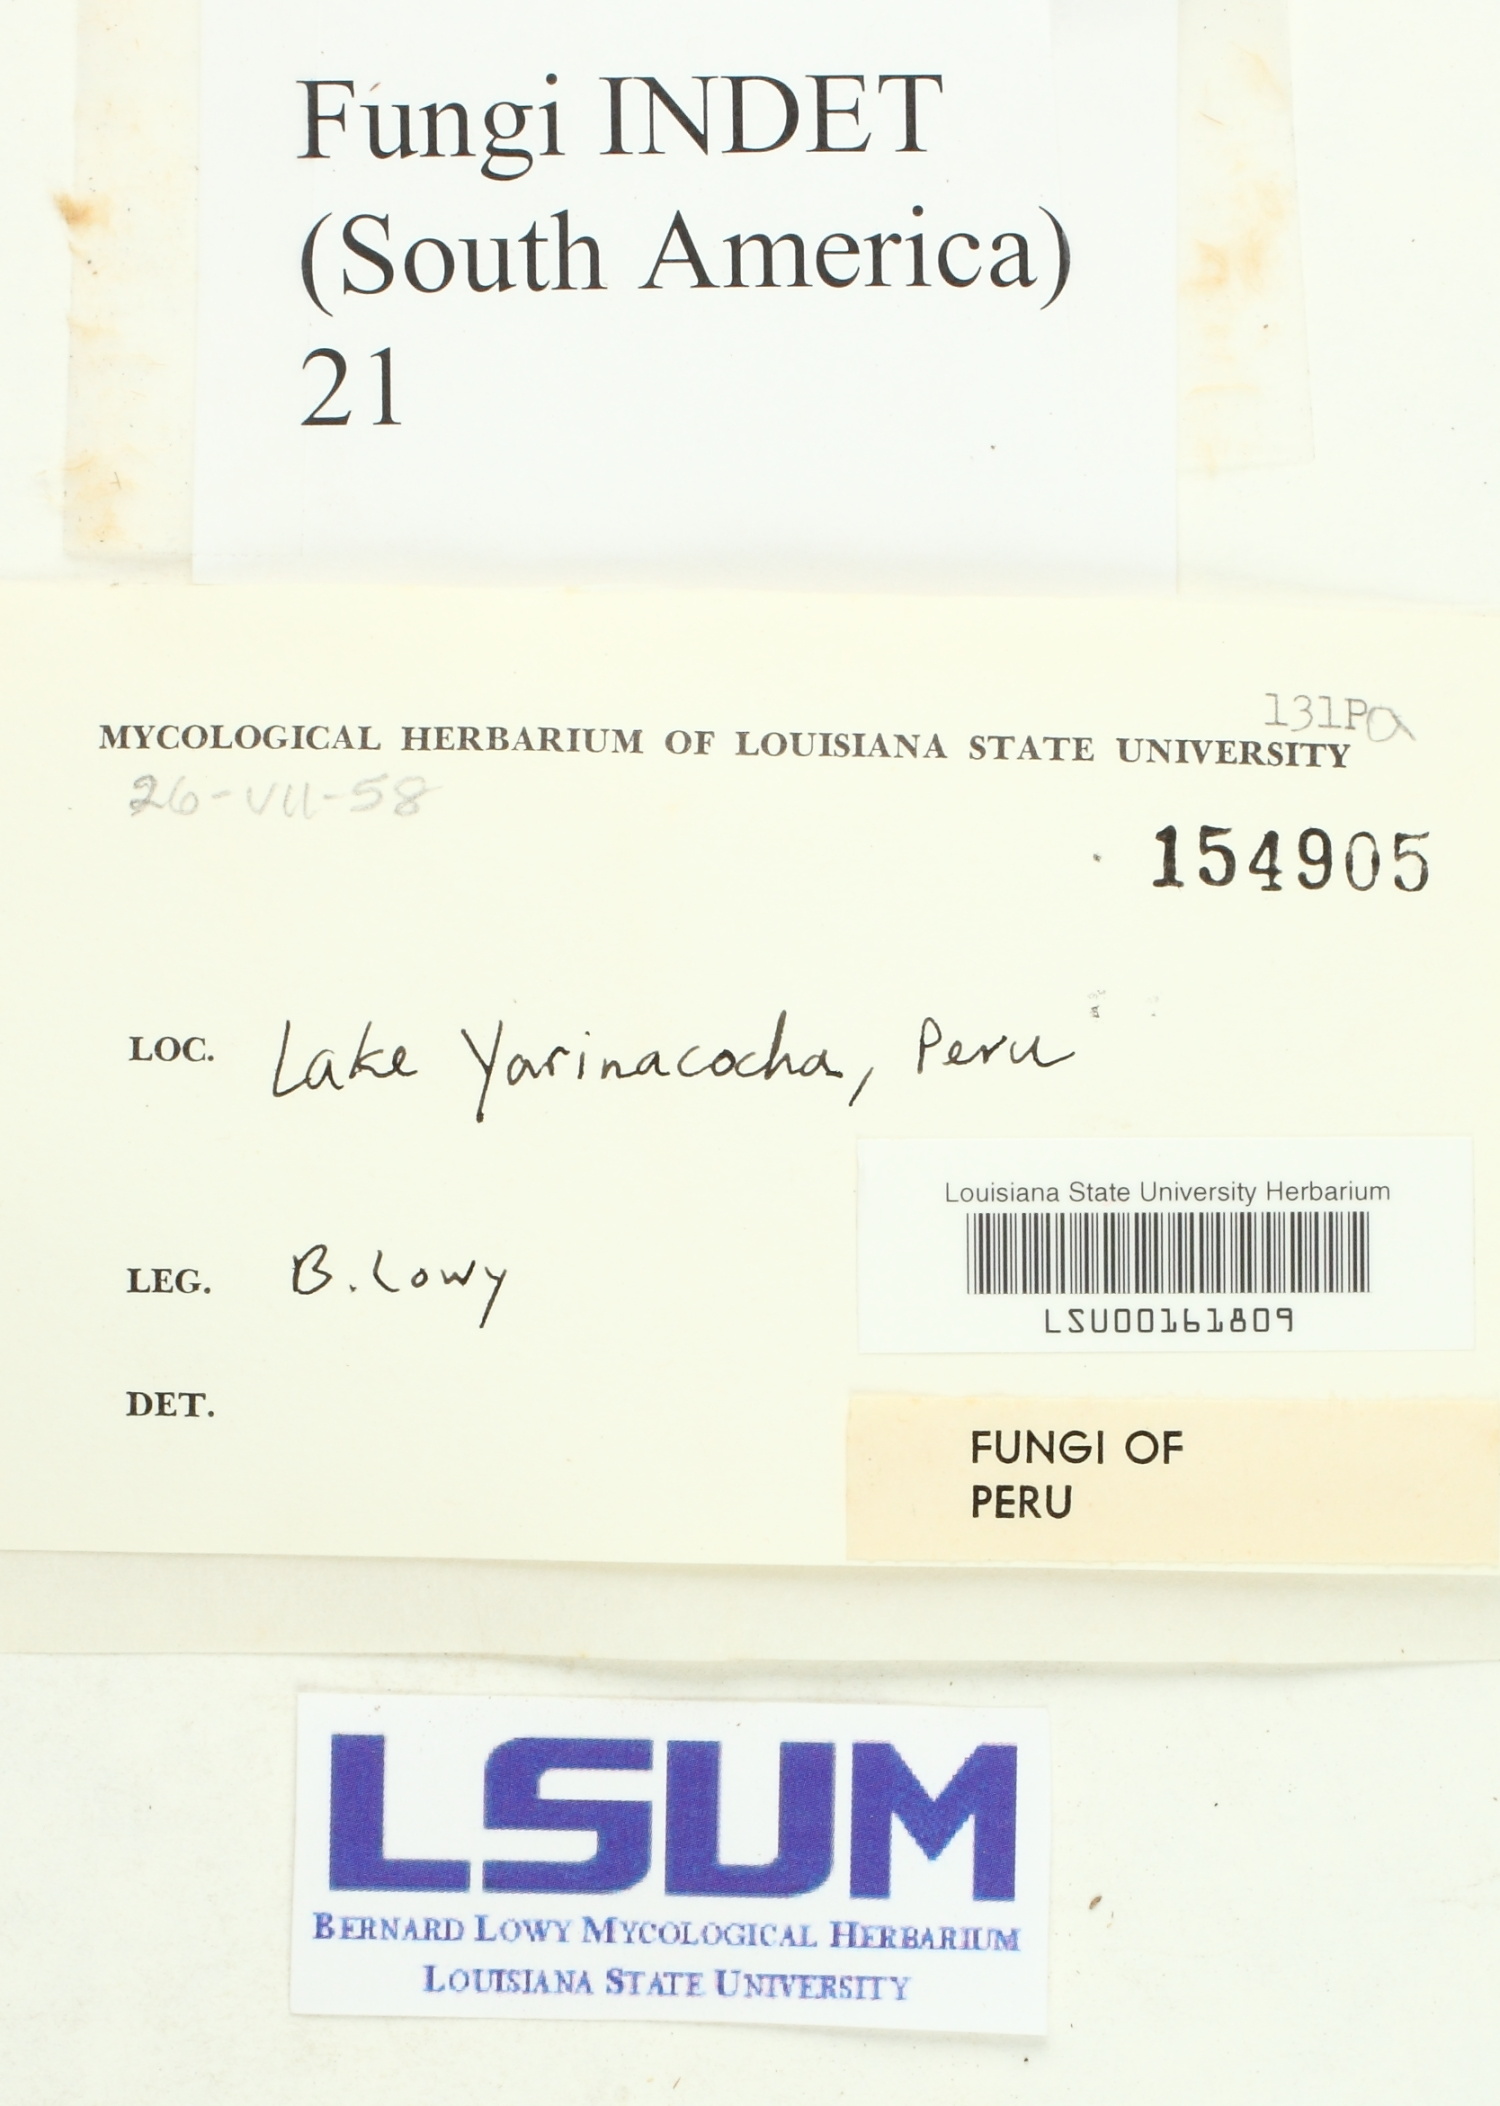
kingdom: Fungi
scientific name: Fungi
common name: Fungi
